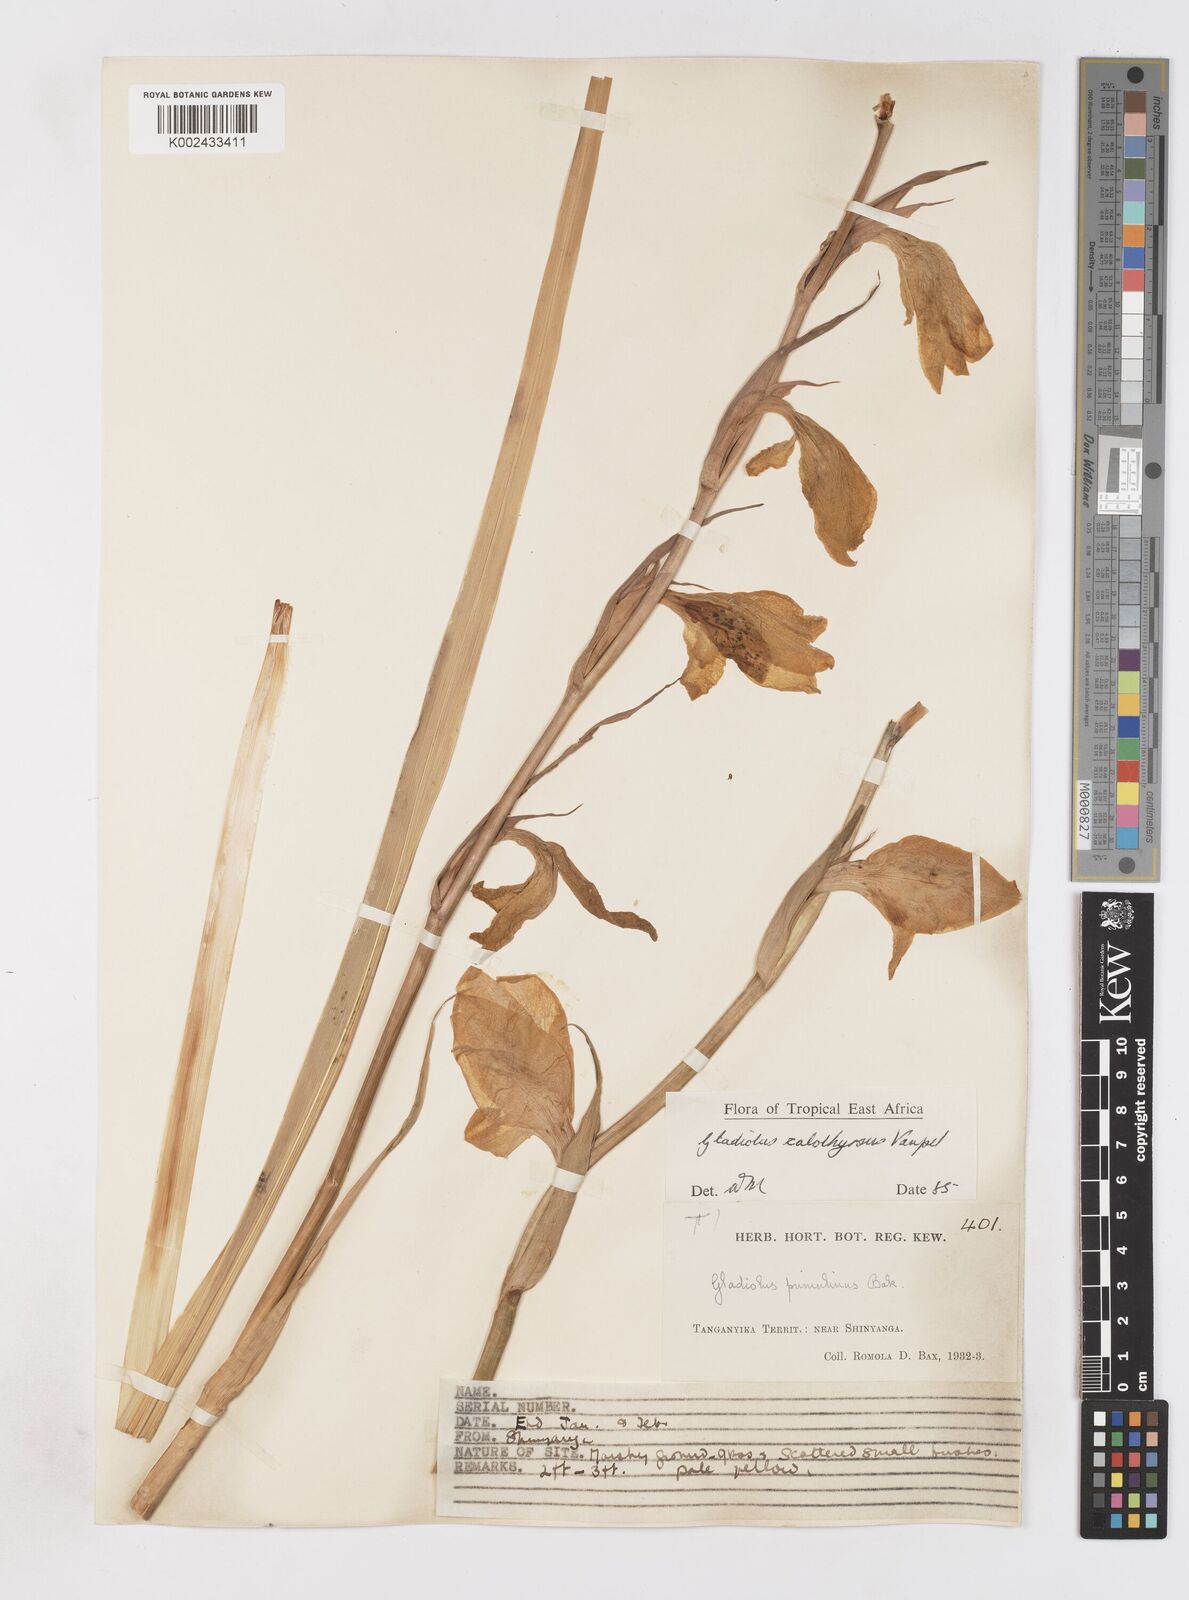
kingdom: Plantae
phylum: Tracheophyta
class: Liliopsida
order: Asparagales
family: Iridaceae
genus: Gladiolus
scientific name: Gladiolus dalenii
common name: Cornflag
